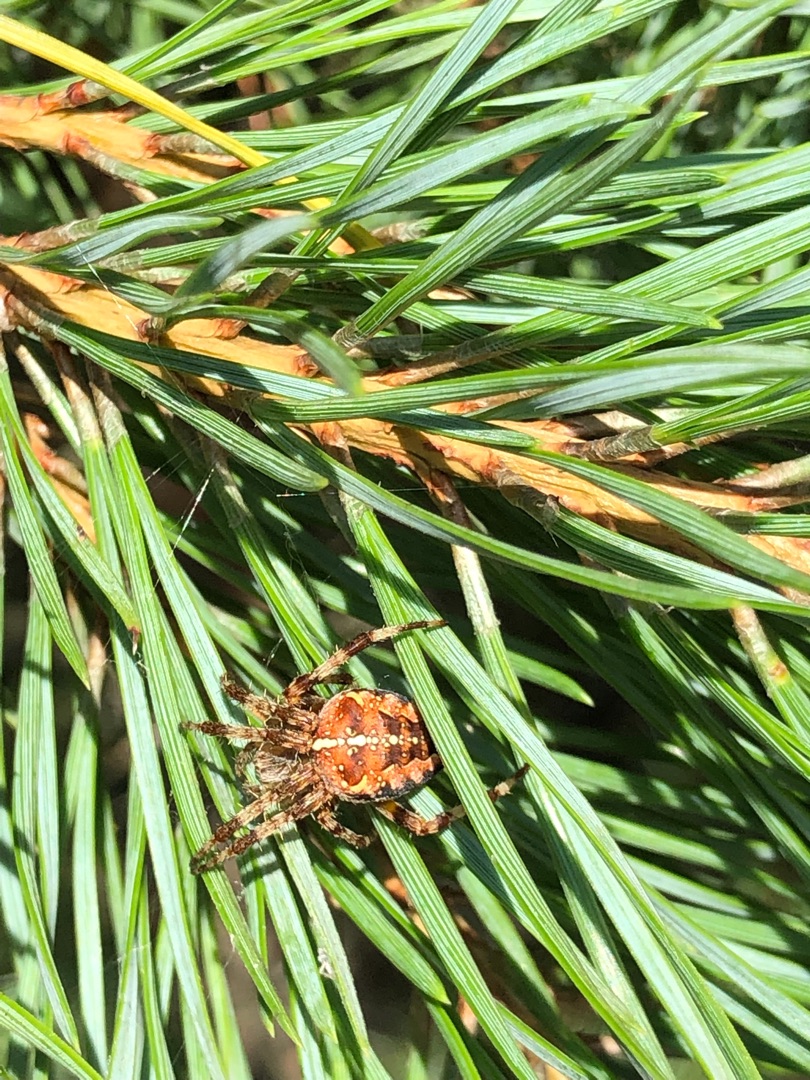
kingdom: Animalia
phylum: Arthropoda
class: Arachnida
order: Araneae
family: Araneidae
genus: Araneus
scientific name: Araneus diadematus
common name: Korsedderkop
